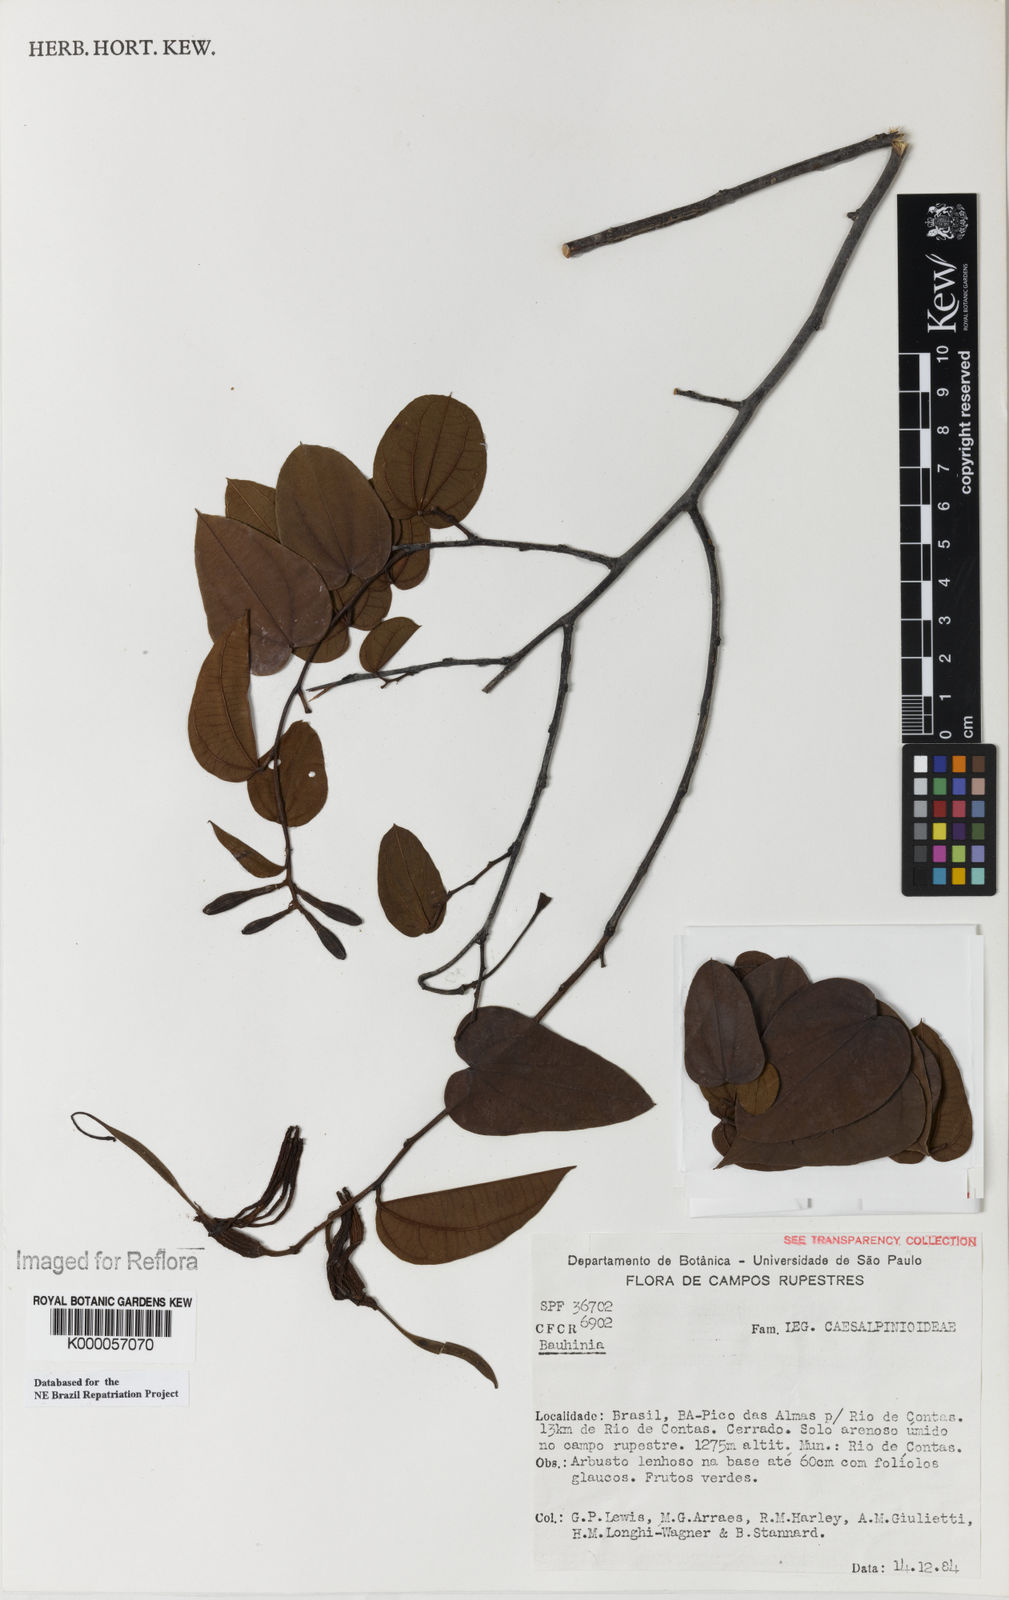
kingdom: Plantae
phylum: Tracheophyta
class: Magnoliopsida
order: Fabales
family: Fabaceae
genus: Bauhinia
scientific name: Bauhinia
